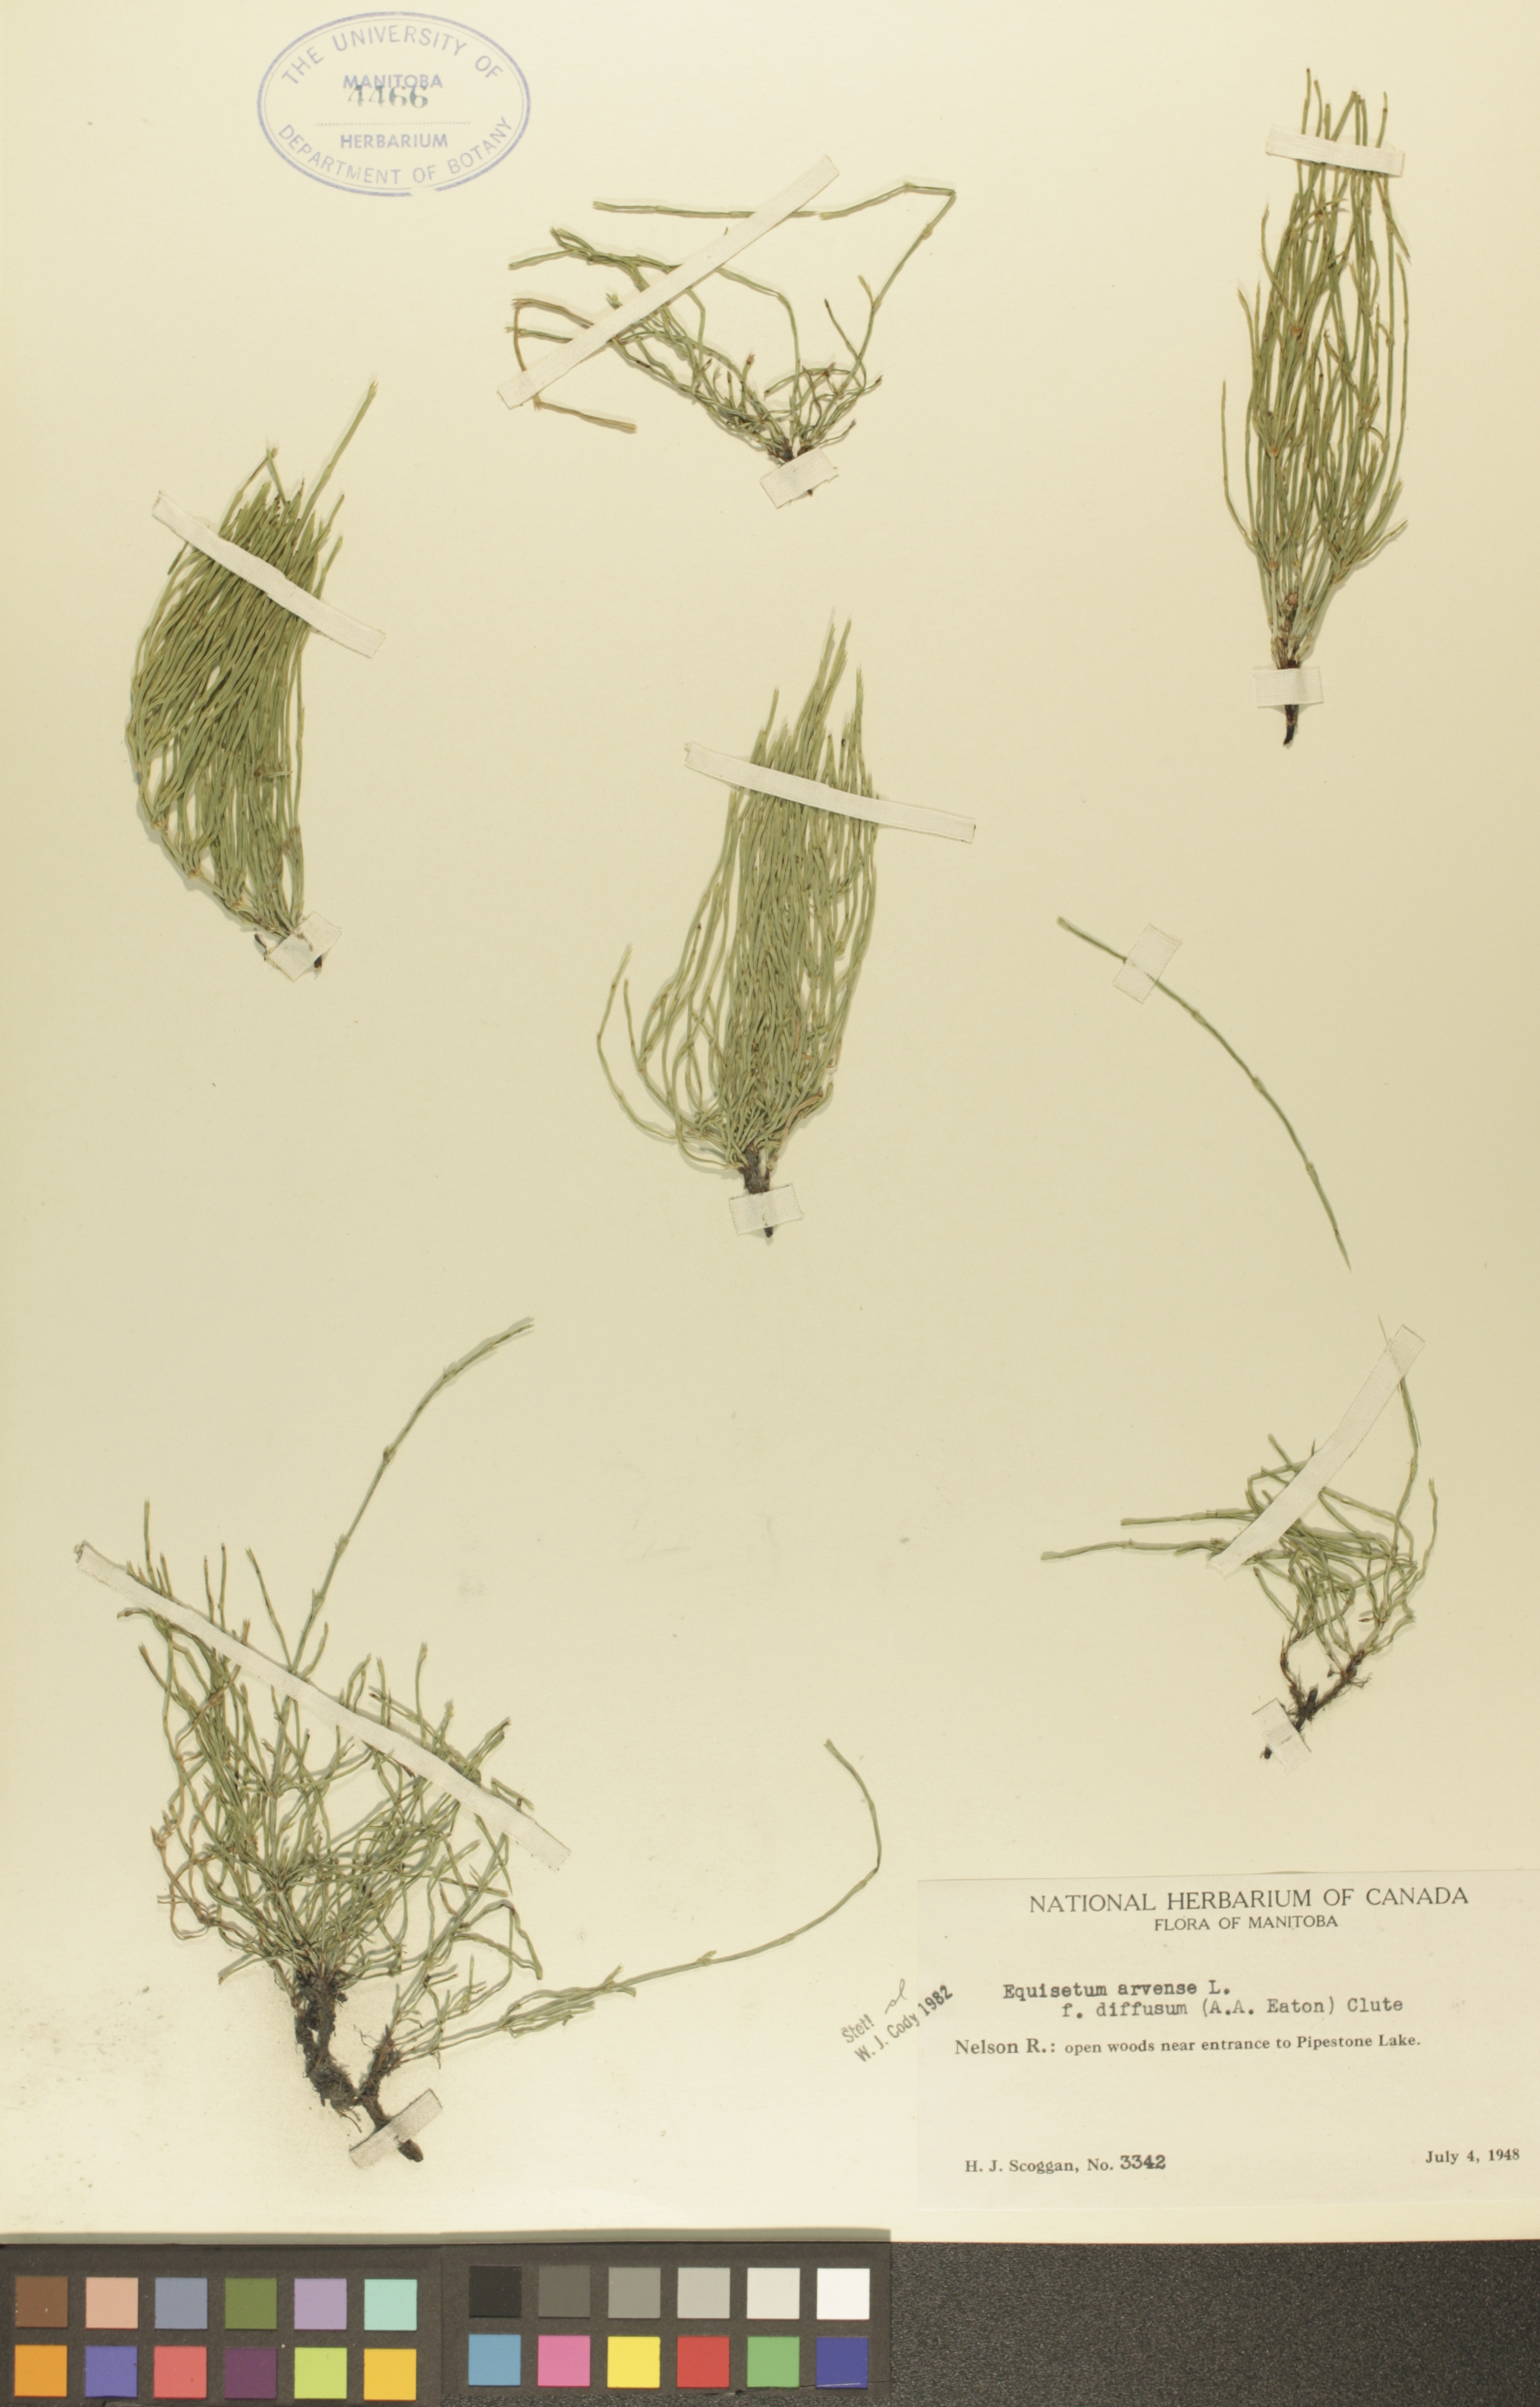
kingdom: Plantae
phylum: Tracheophyta
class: Polypodiopsida
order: Equisetales
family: Equisetaceae
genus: Equisetum
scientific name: Equisetum arvense
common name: Field horsetail
